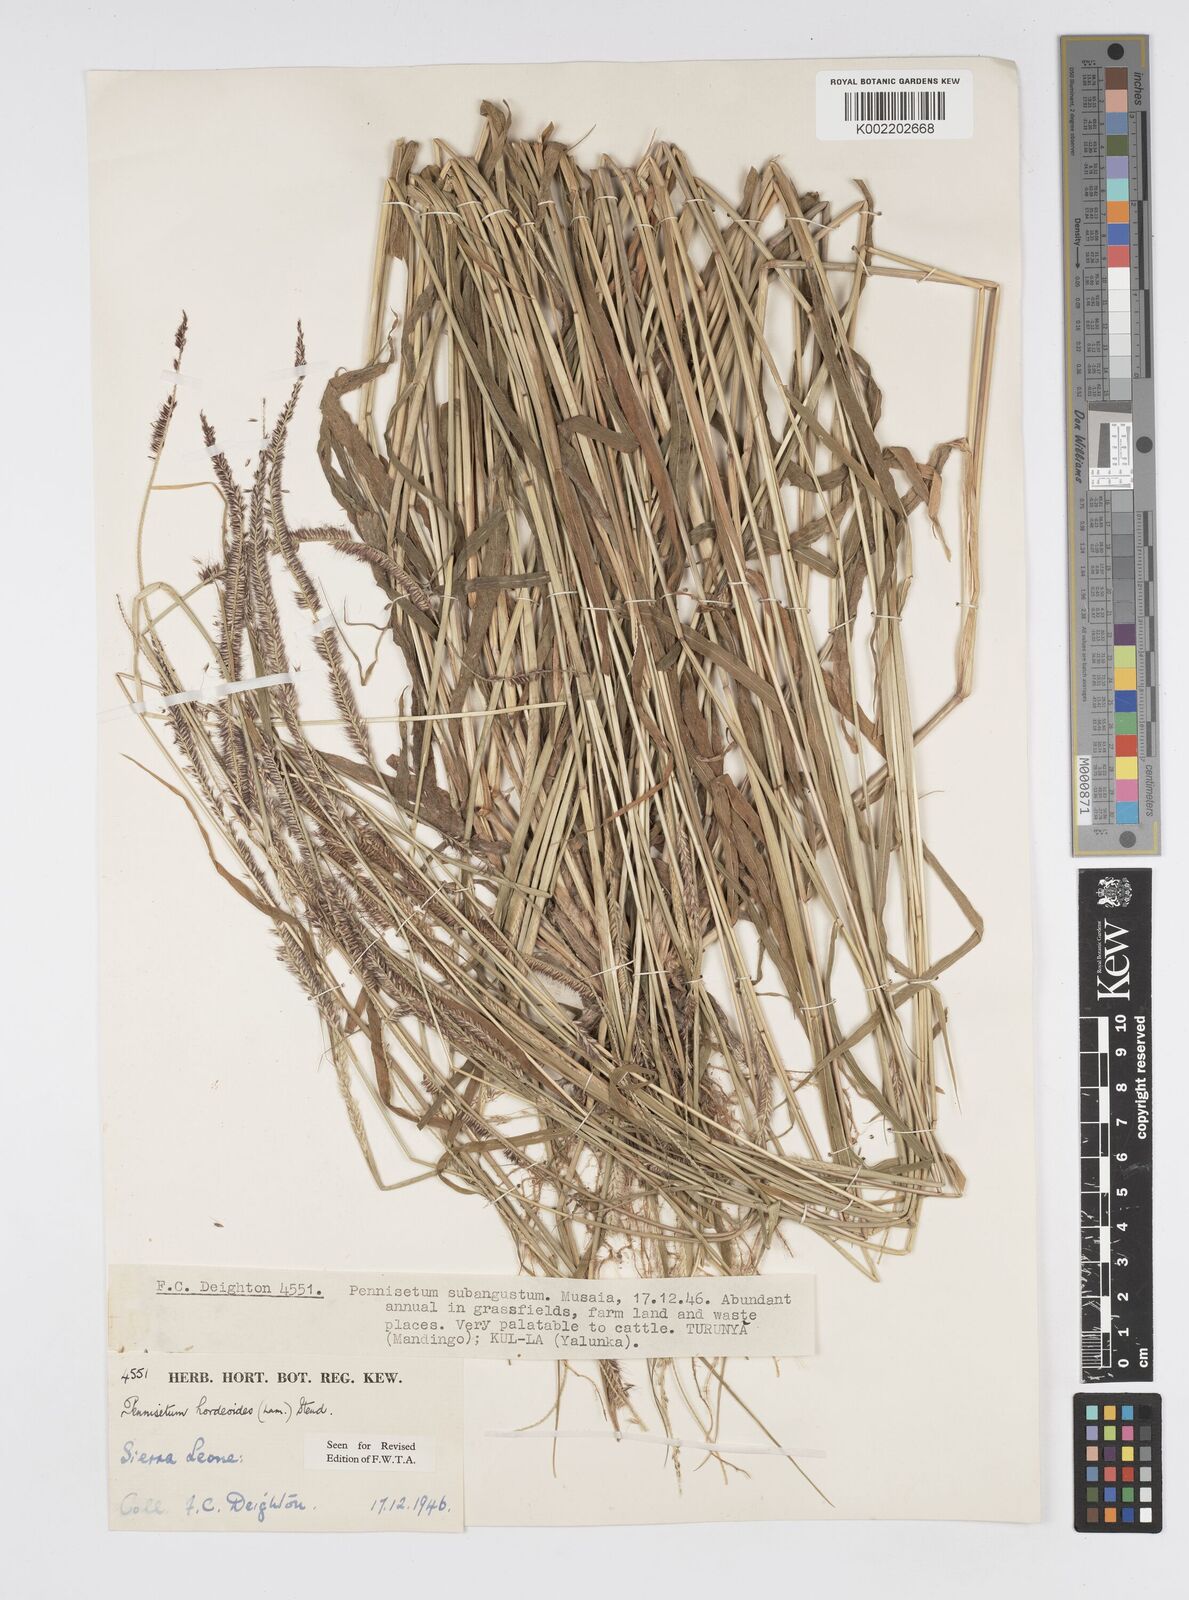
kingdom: Plantae
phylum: Tracheophyta
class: Liliopsida
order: Poales
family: Poaceae
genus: Cenchrus
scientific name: Cenchrus hordeoides
